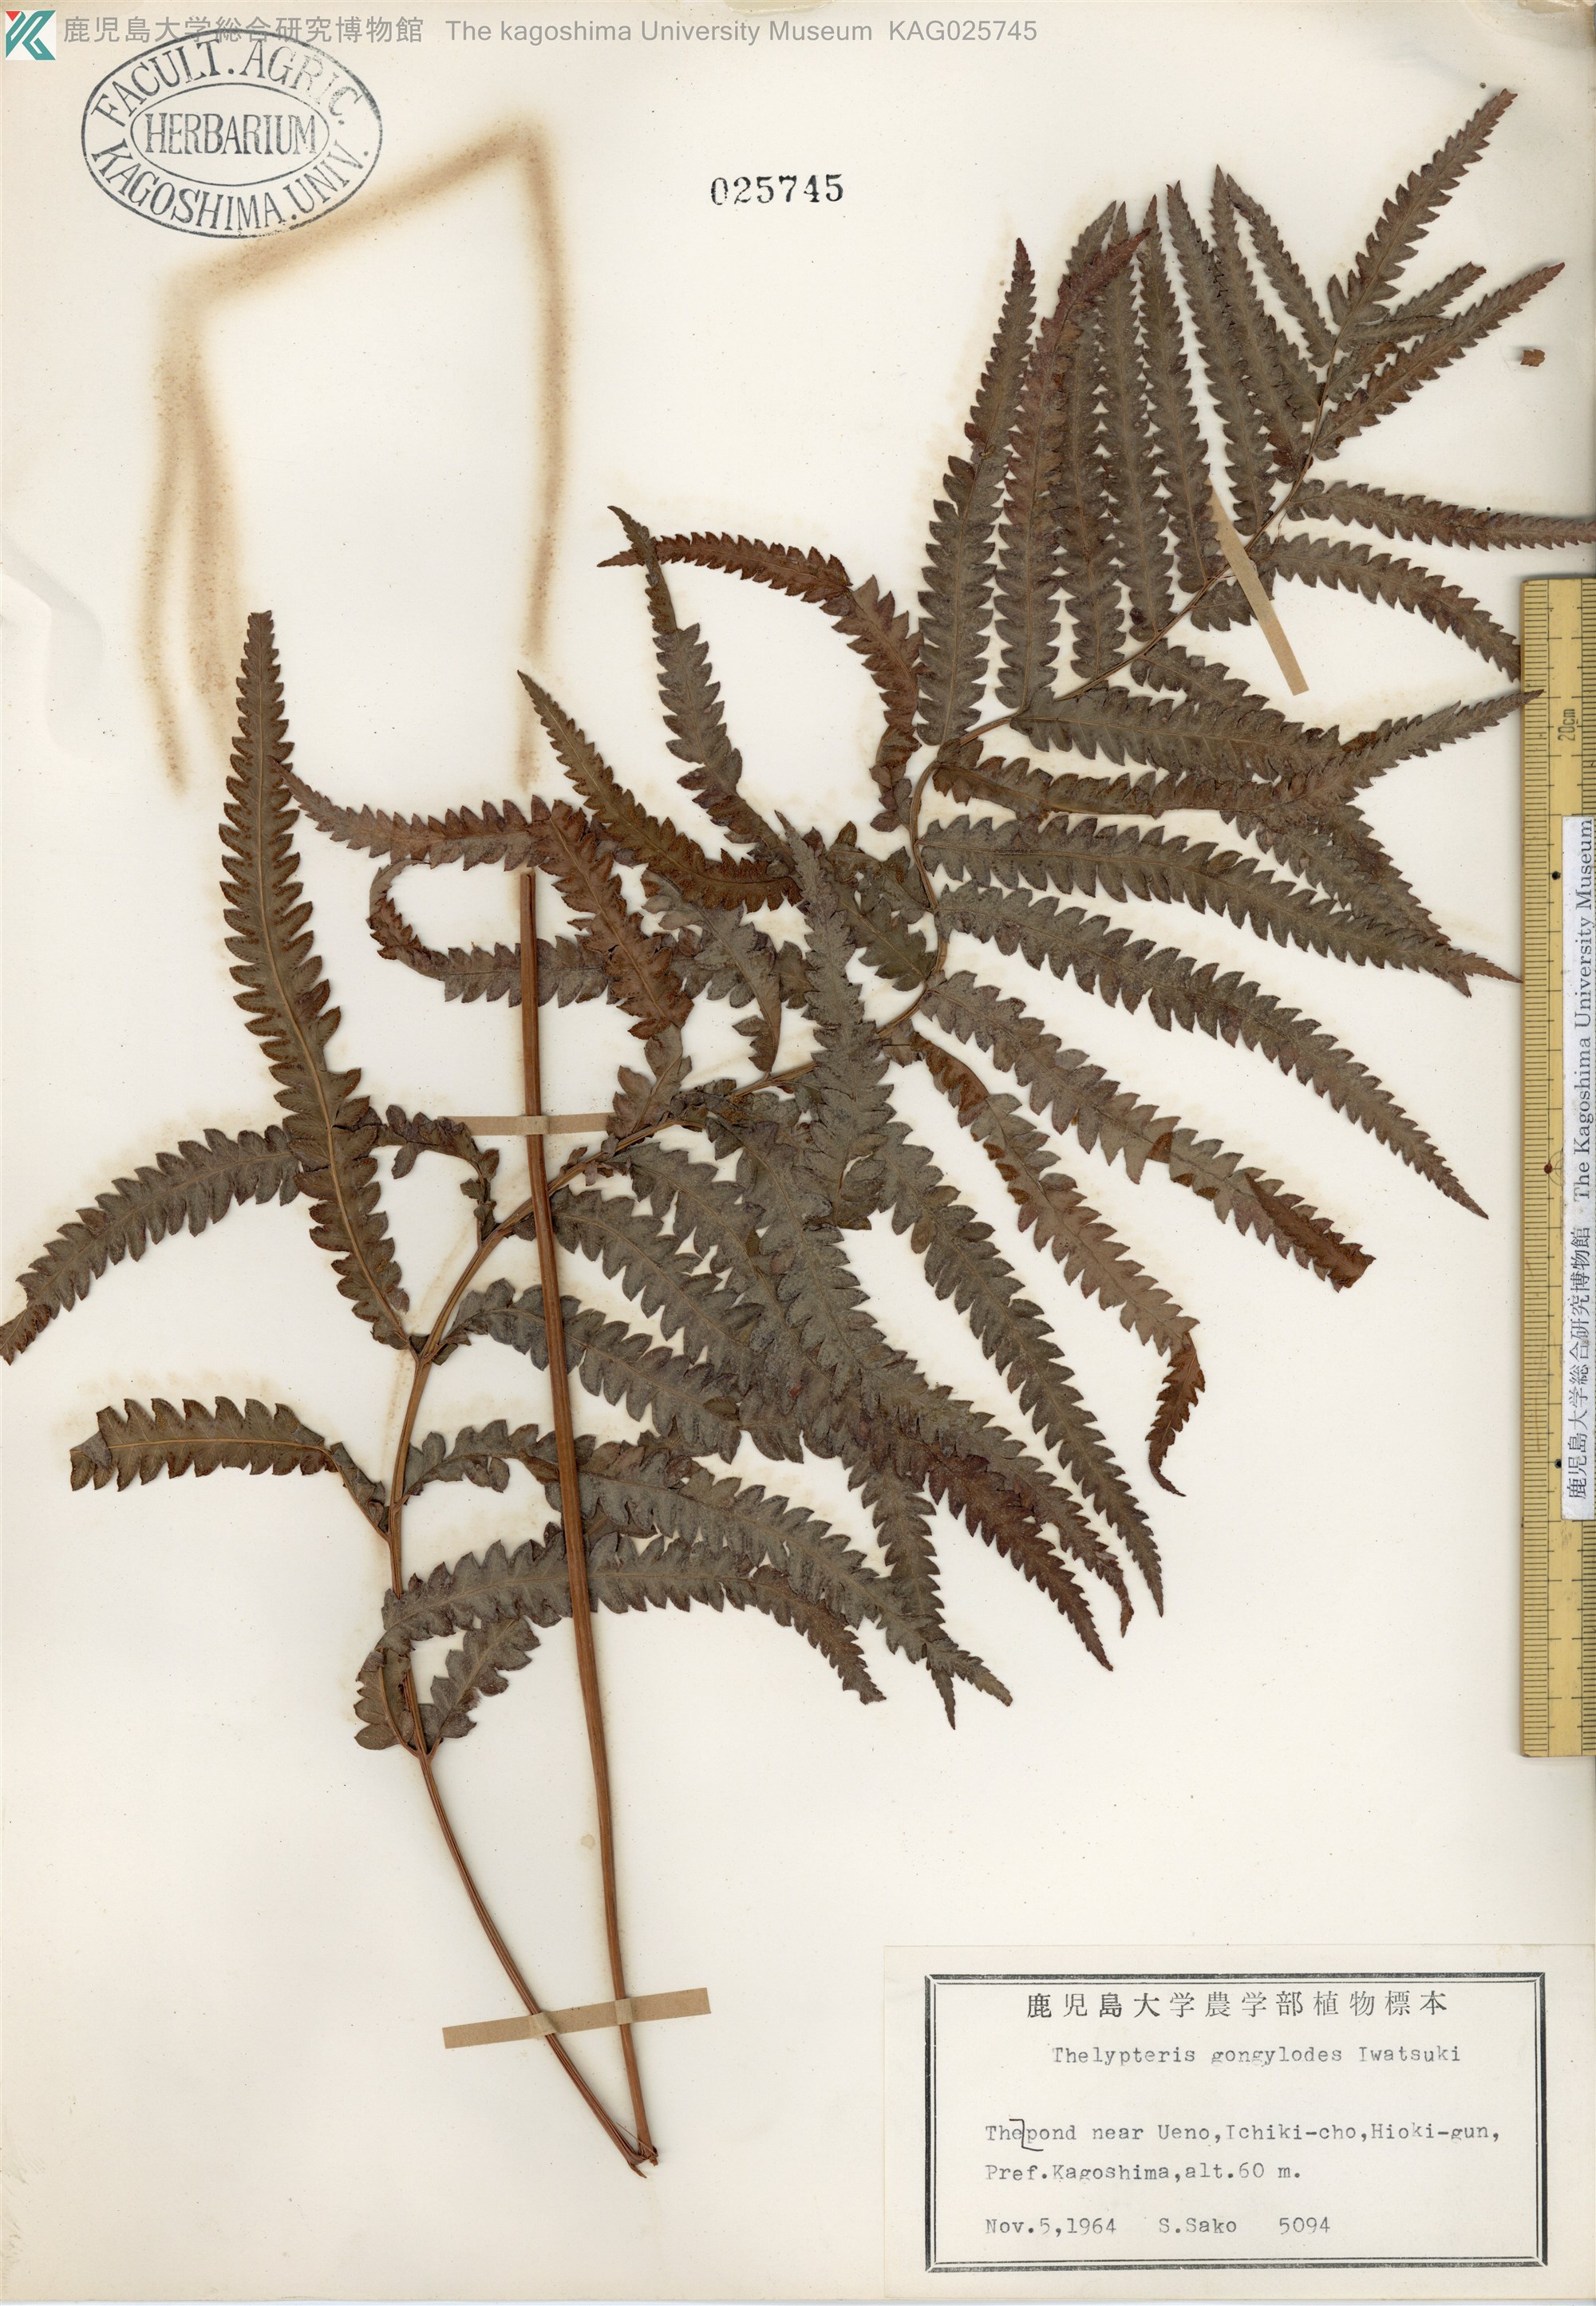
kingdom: Plantae
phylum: Tracheophyta
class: Polypodiopsida
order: Polypodiales
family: Thelypteridaceae
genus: Cyclosorus
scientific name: Cyclosorus interruptus
